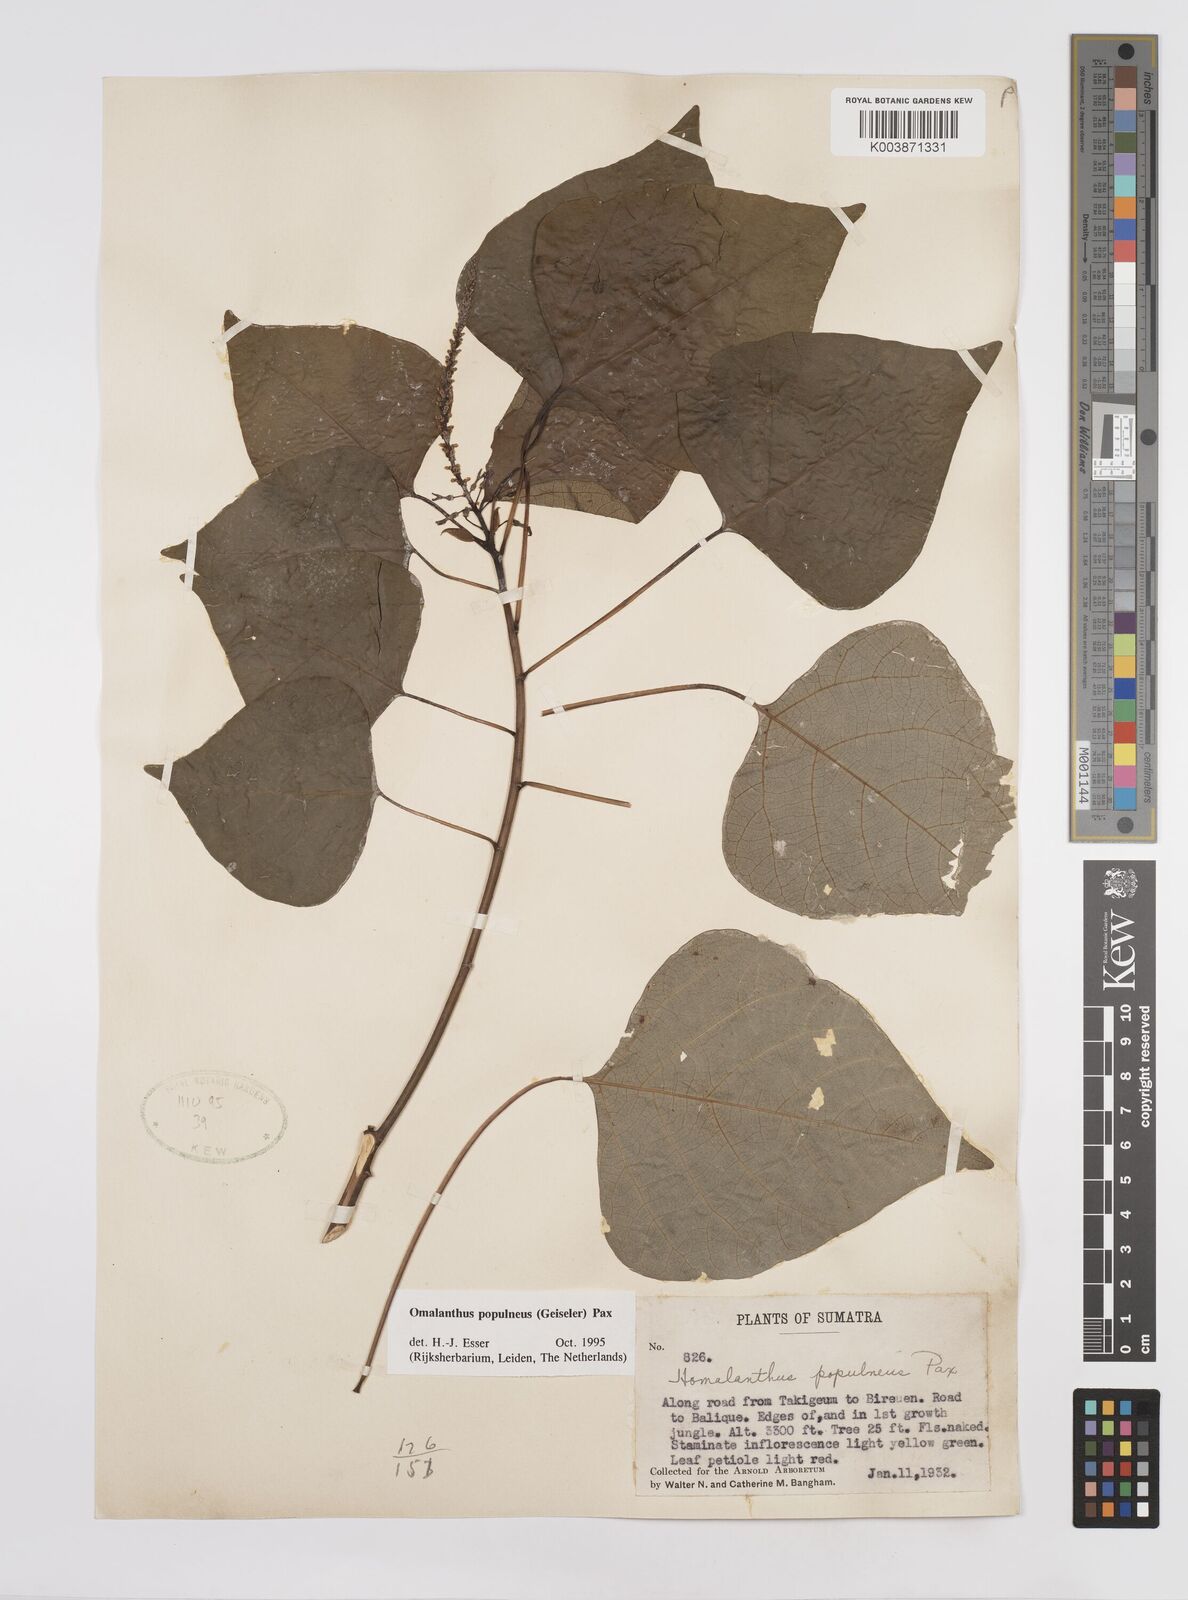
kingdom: Plantae
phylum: Tracheophyta
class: Magnoliopsida
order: Malpighiales
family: Euphorbiaceae
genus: Homalanthus
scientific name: Homalanthus populneus
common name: Spurge
